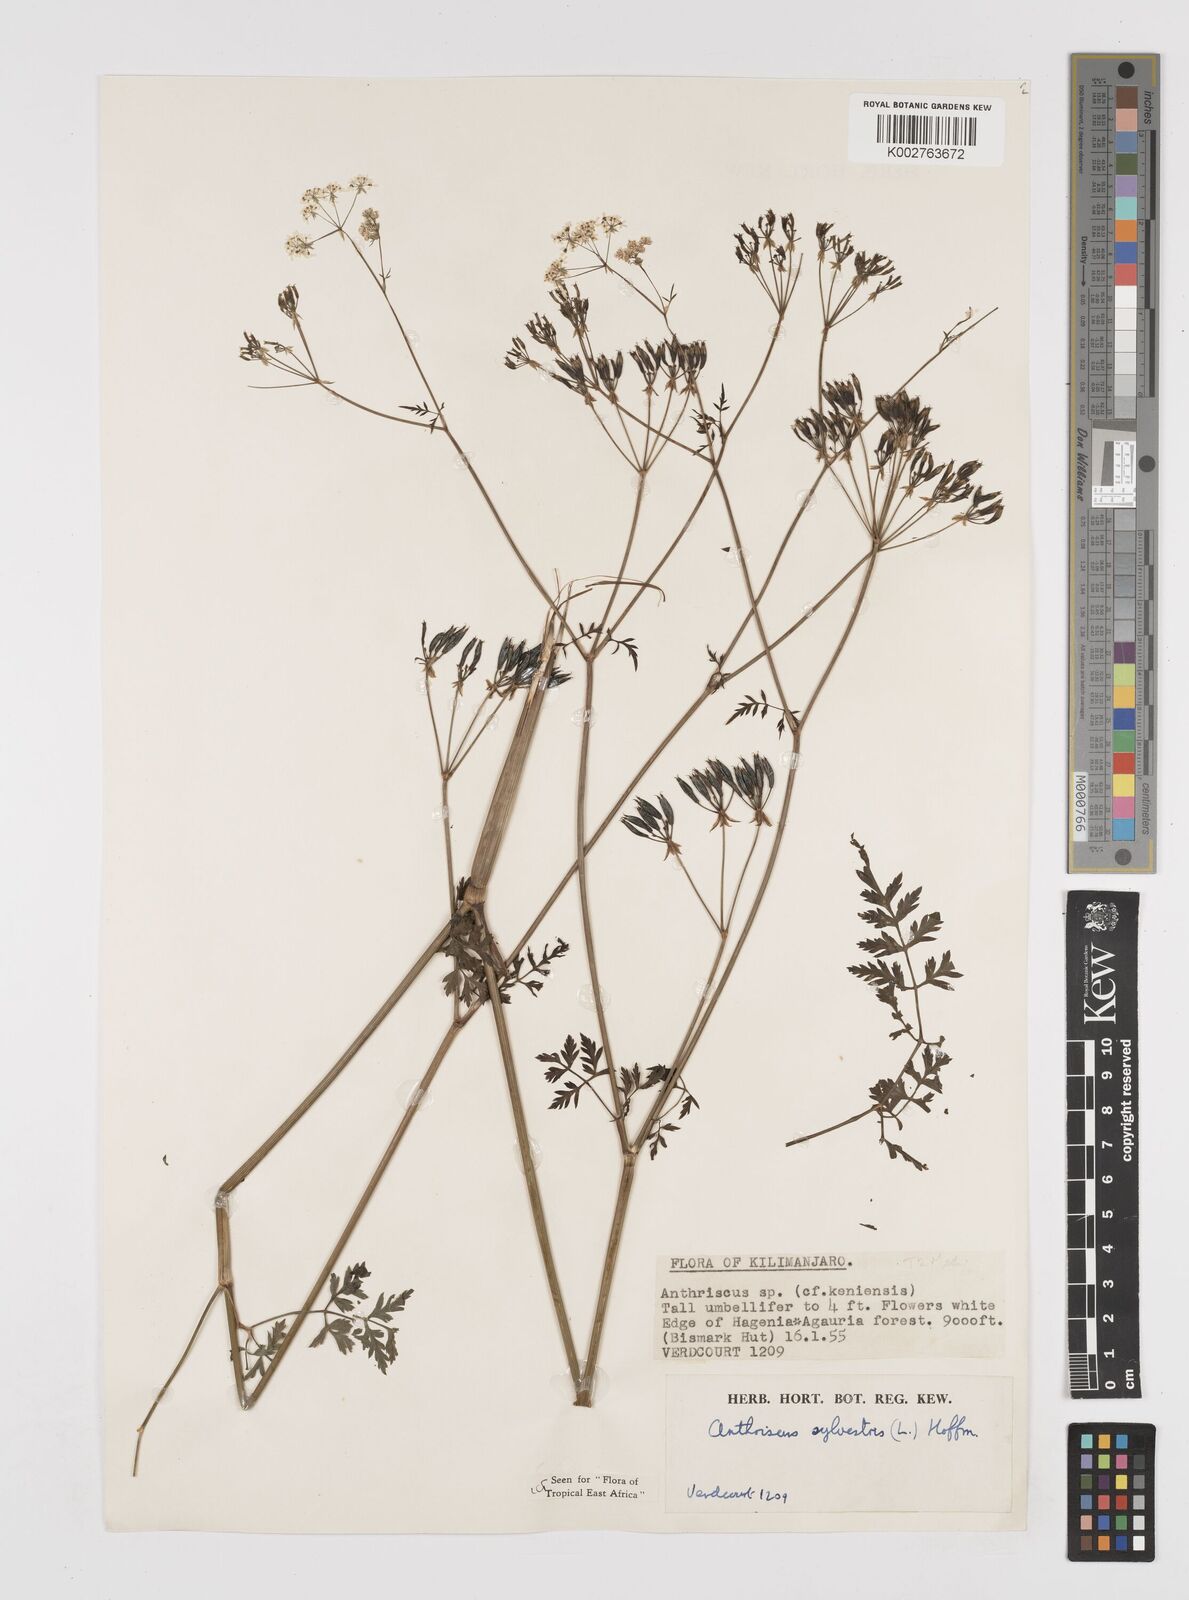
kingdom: Plantae
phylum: Tracheophyta
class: Magnoliopsida
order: Apiales
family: Apiaceae
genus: Anthriscus
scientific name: Anthriscus sylvestris
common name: Cow parsley
